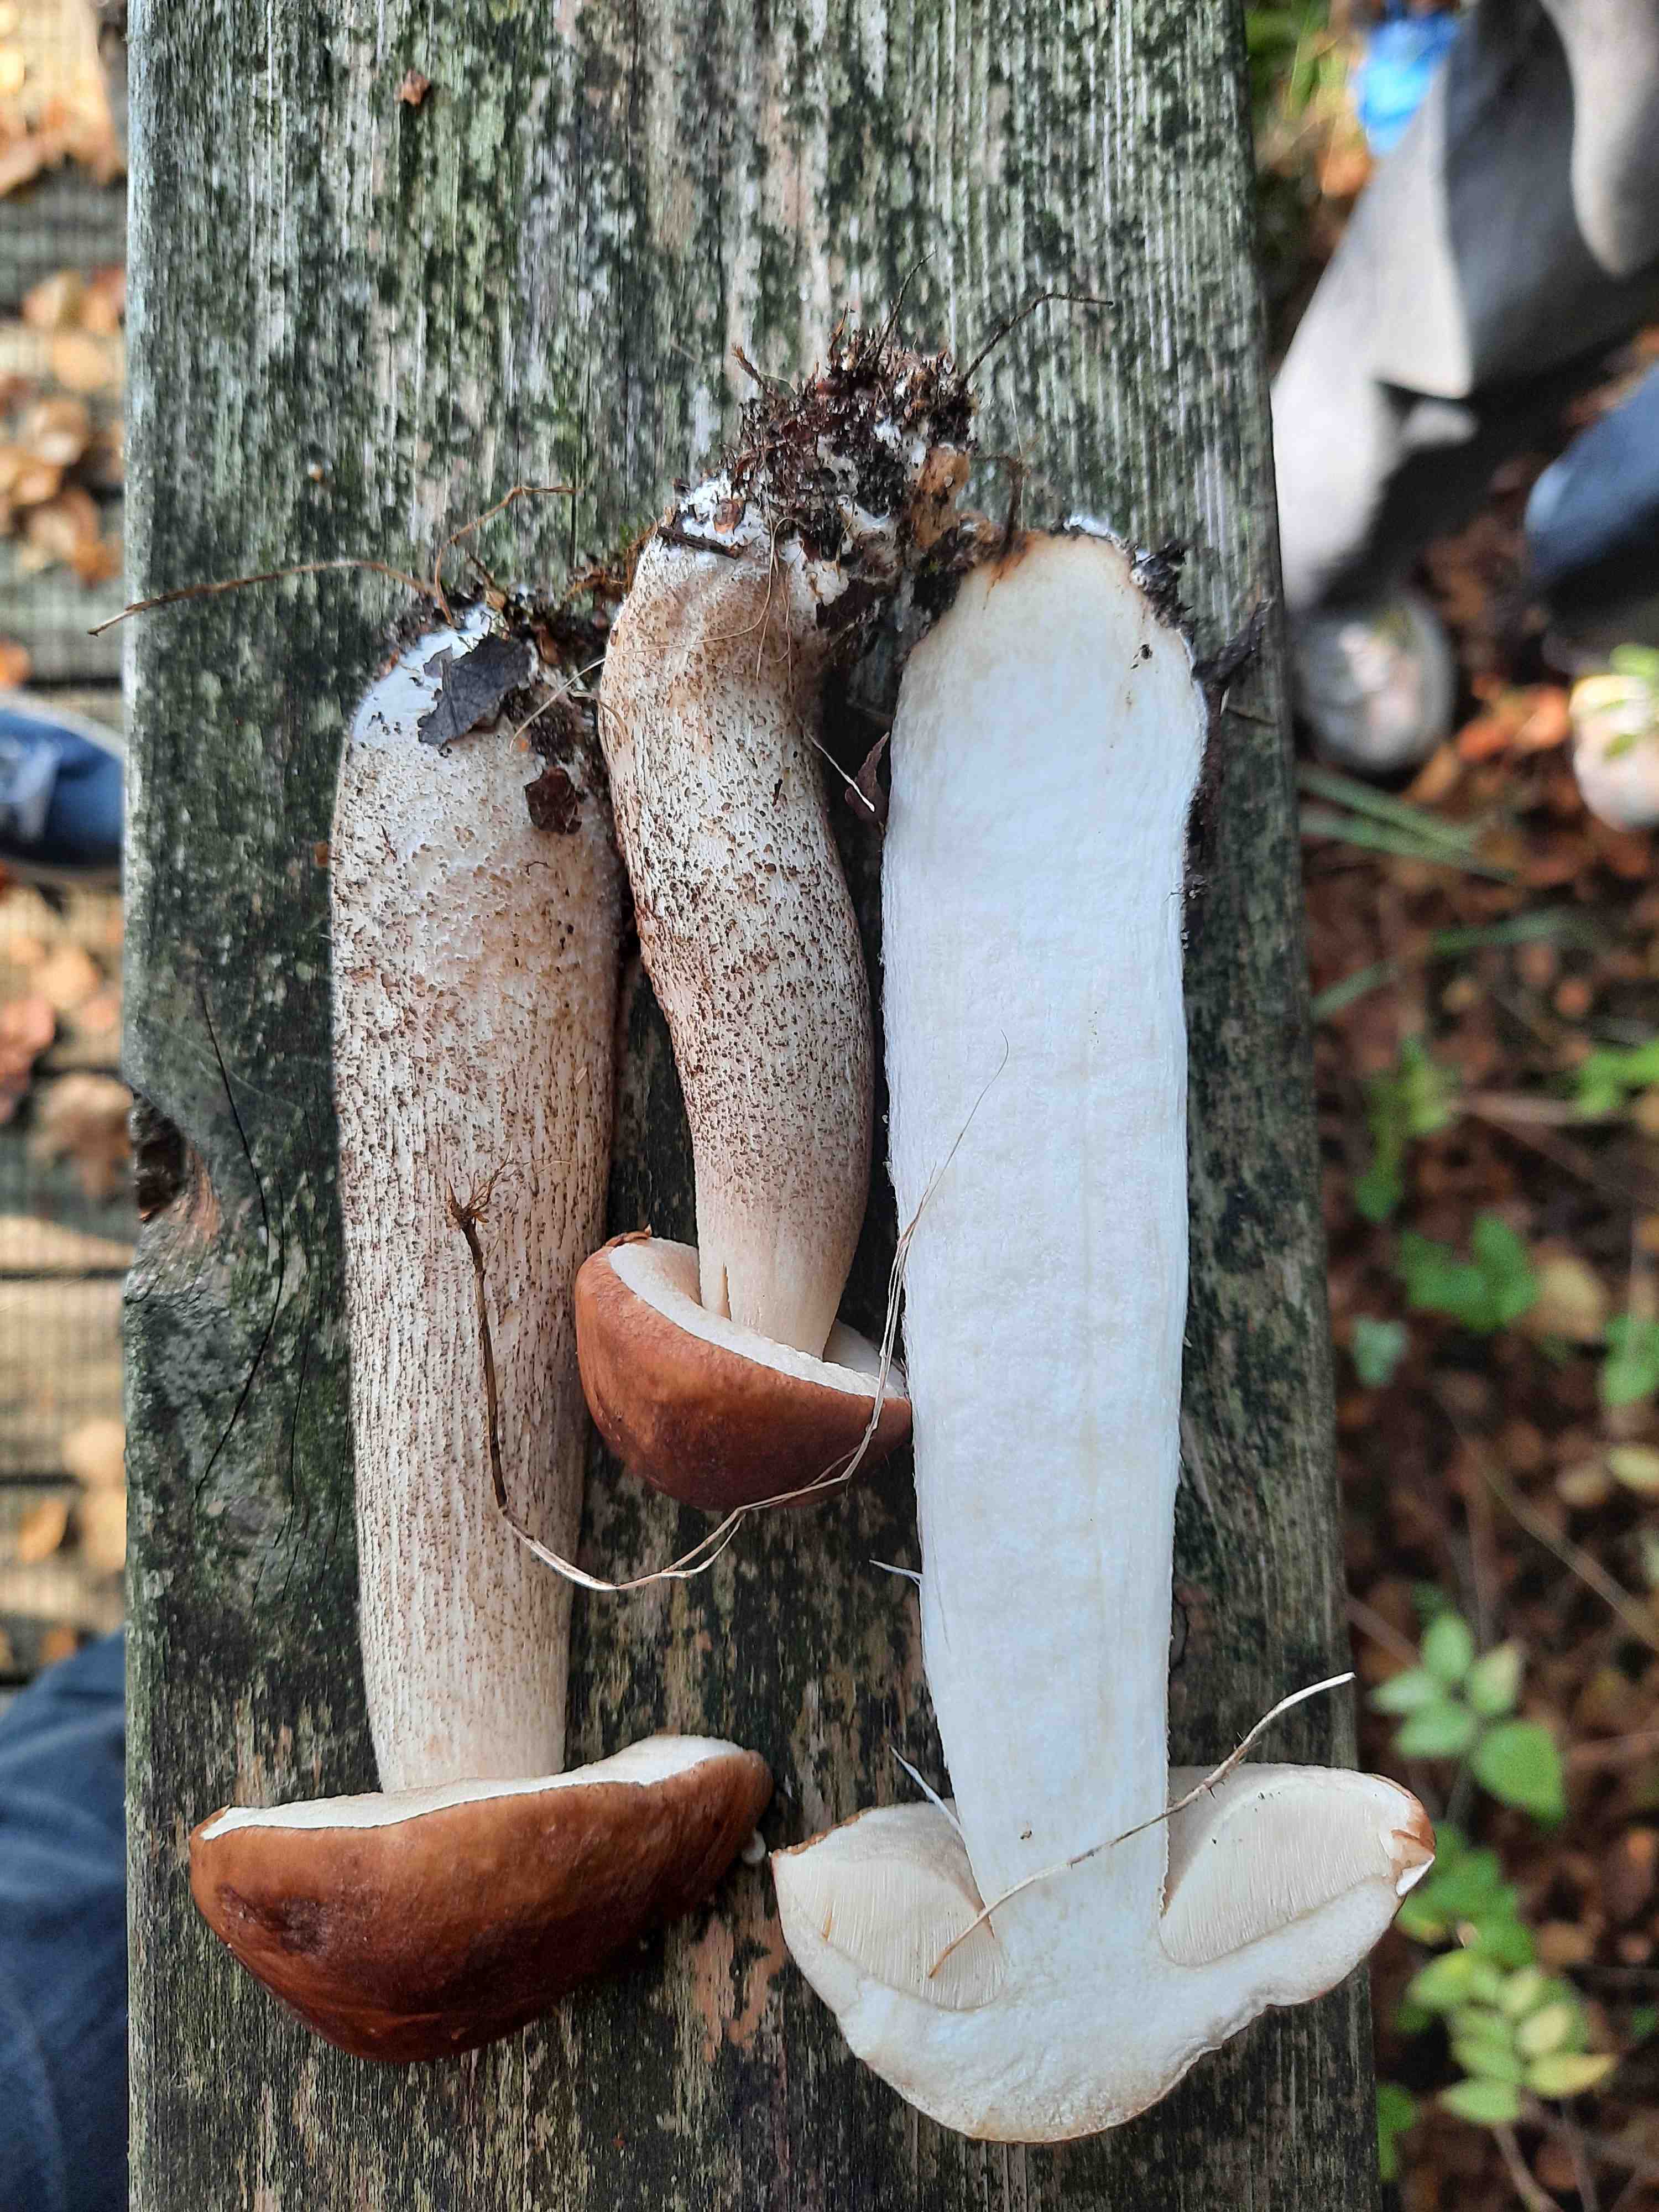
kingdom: Fungi
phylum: Basidiomycota
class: Agaricomycetes
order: Boletales
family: Boletaceae
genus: Leccinum
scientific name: Leccinum scabrum
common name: brun skælrørhat
